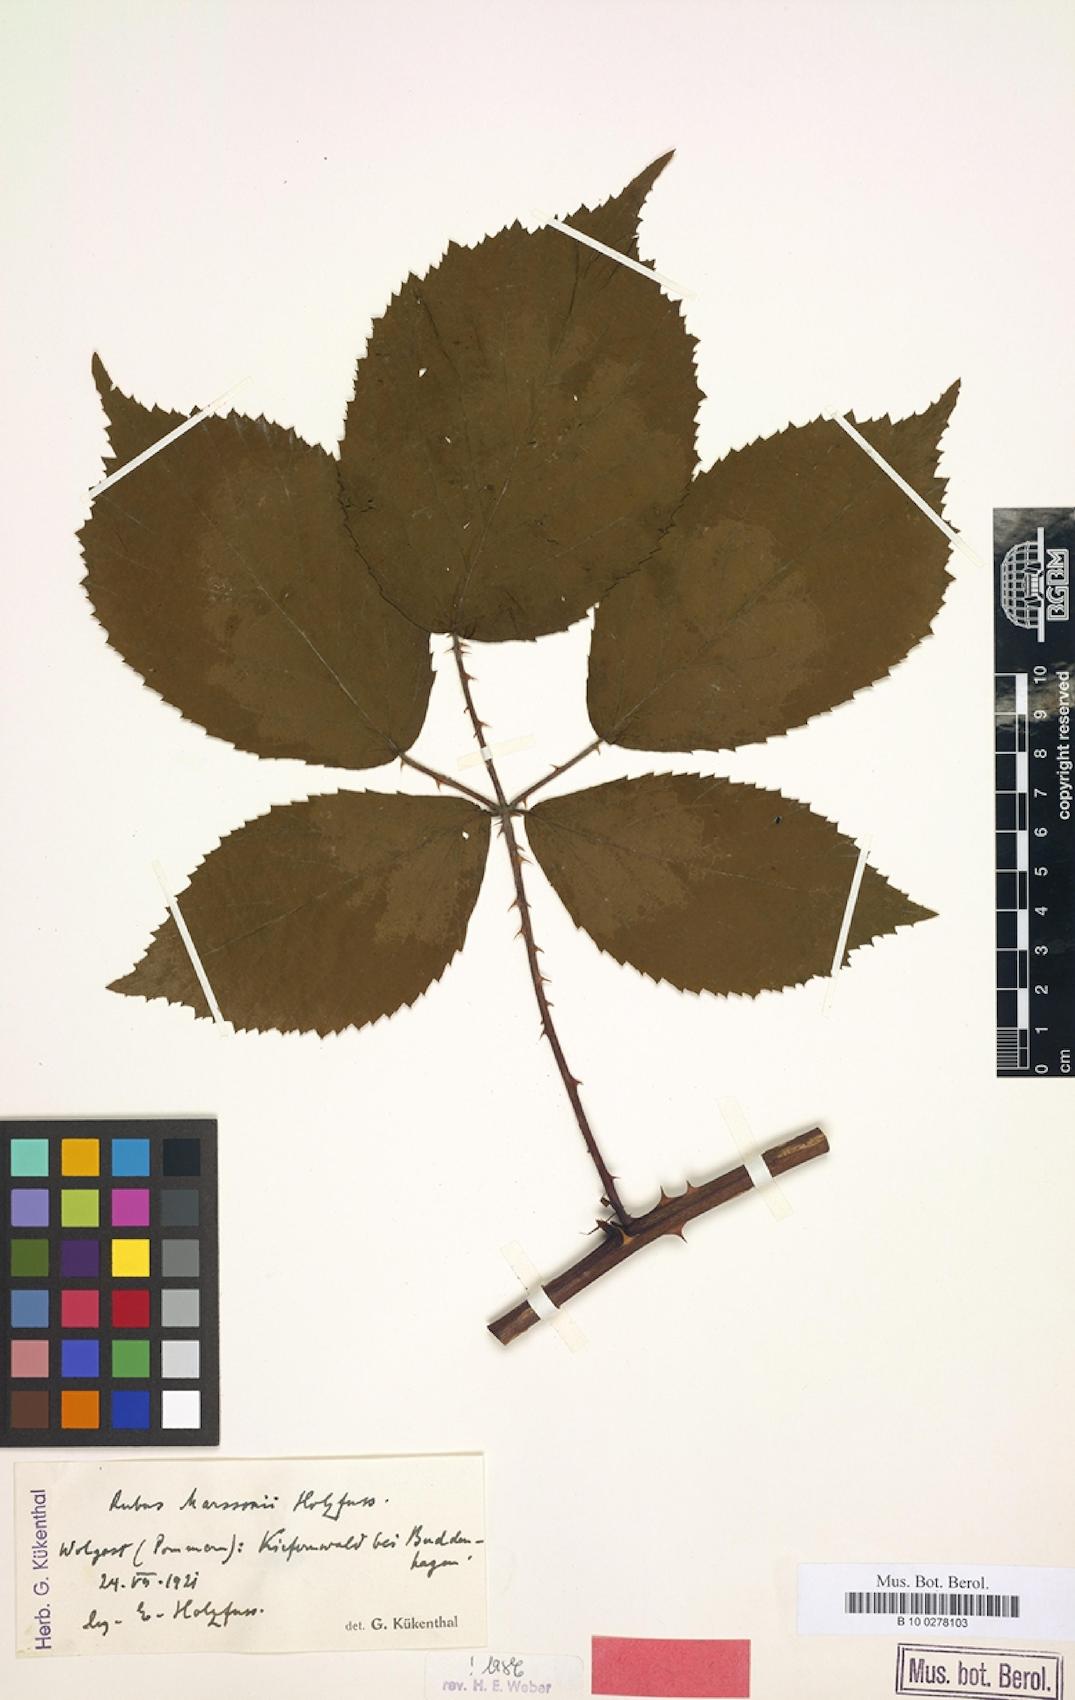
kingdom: Plantae
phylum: Tracheophyta
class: Magnoliopsida
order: Rosales
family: Rosaceae
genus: Rubus
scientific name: Rubus umbrosus
